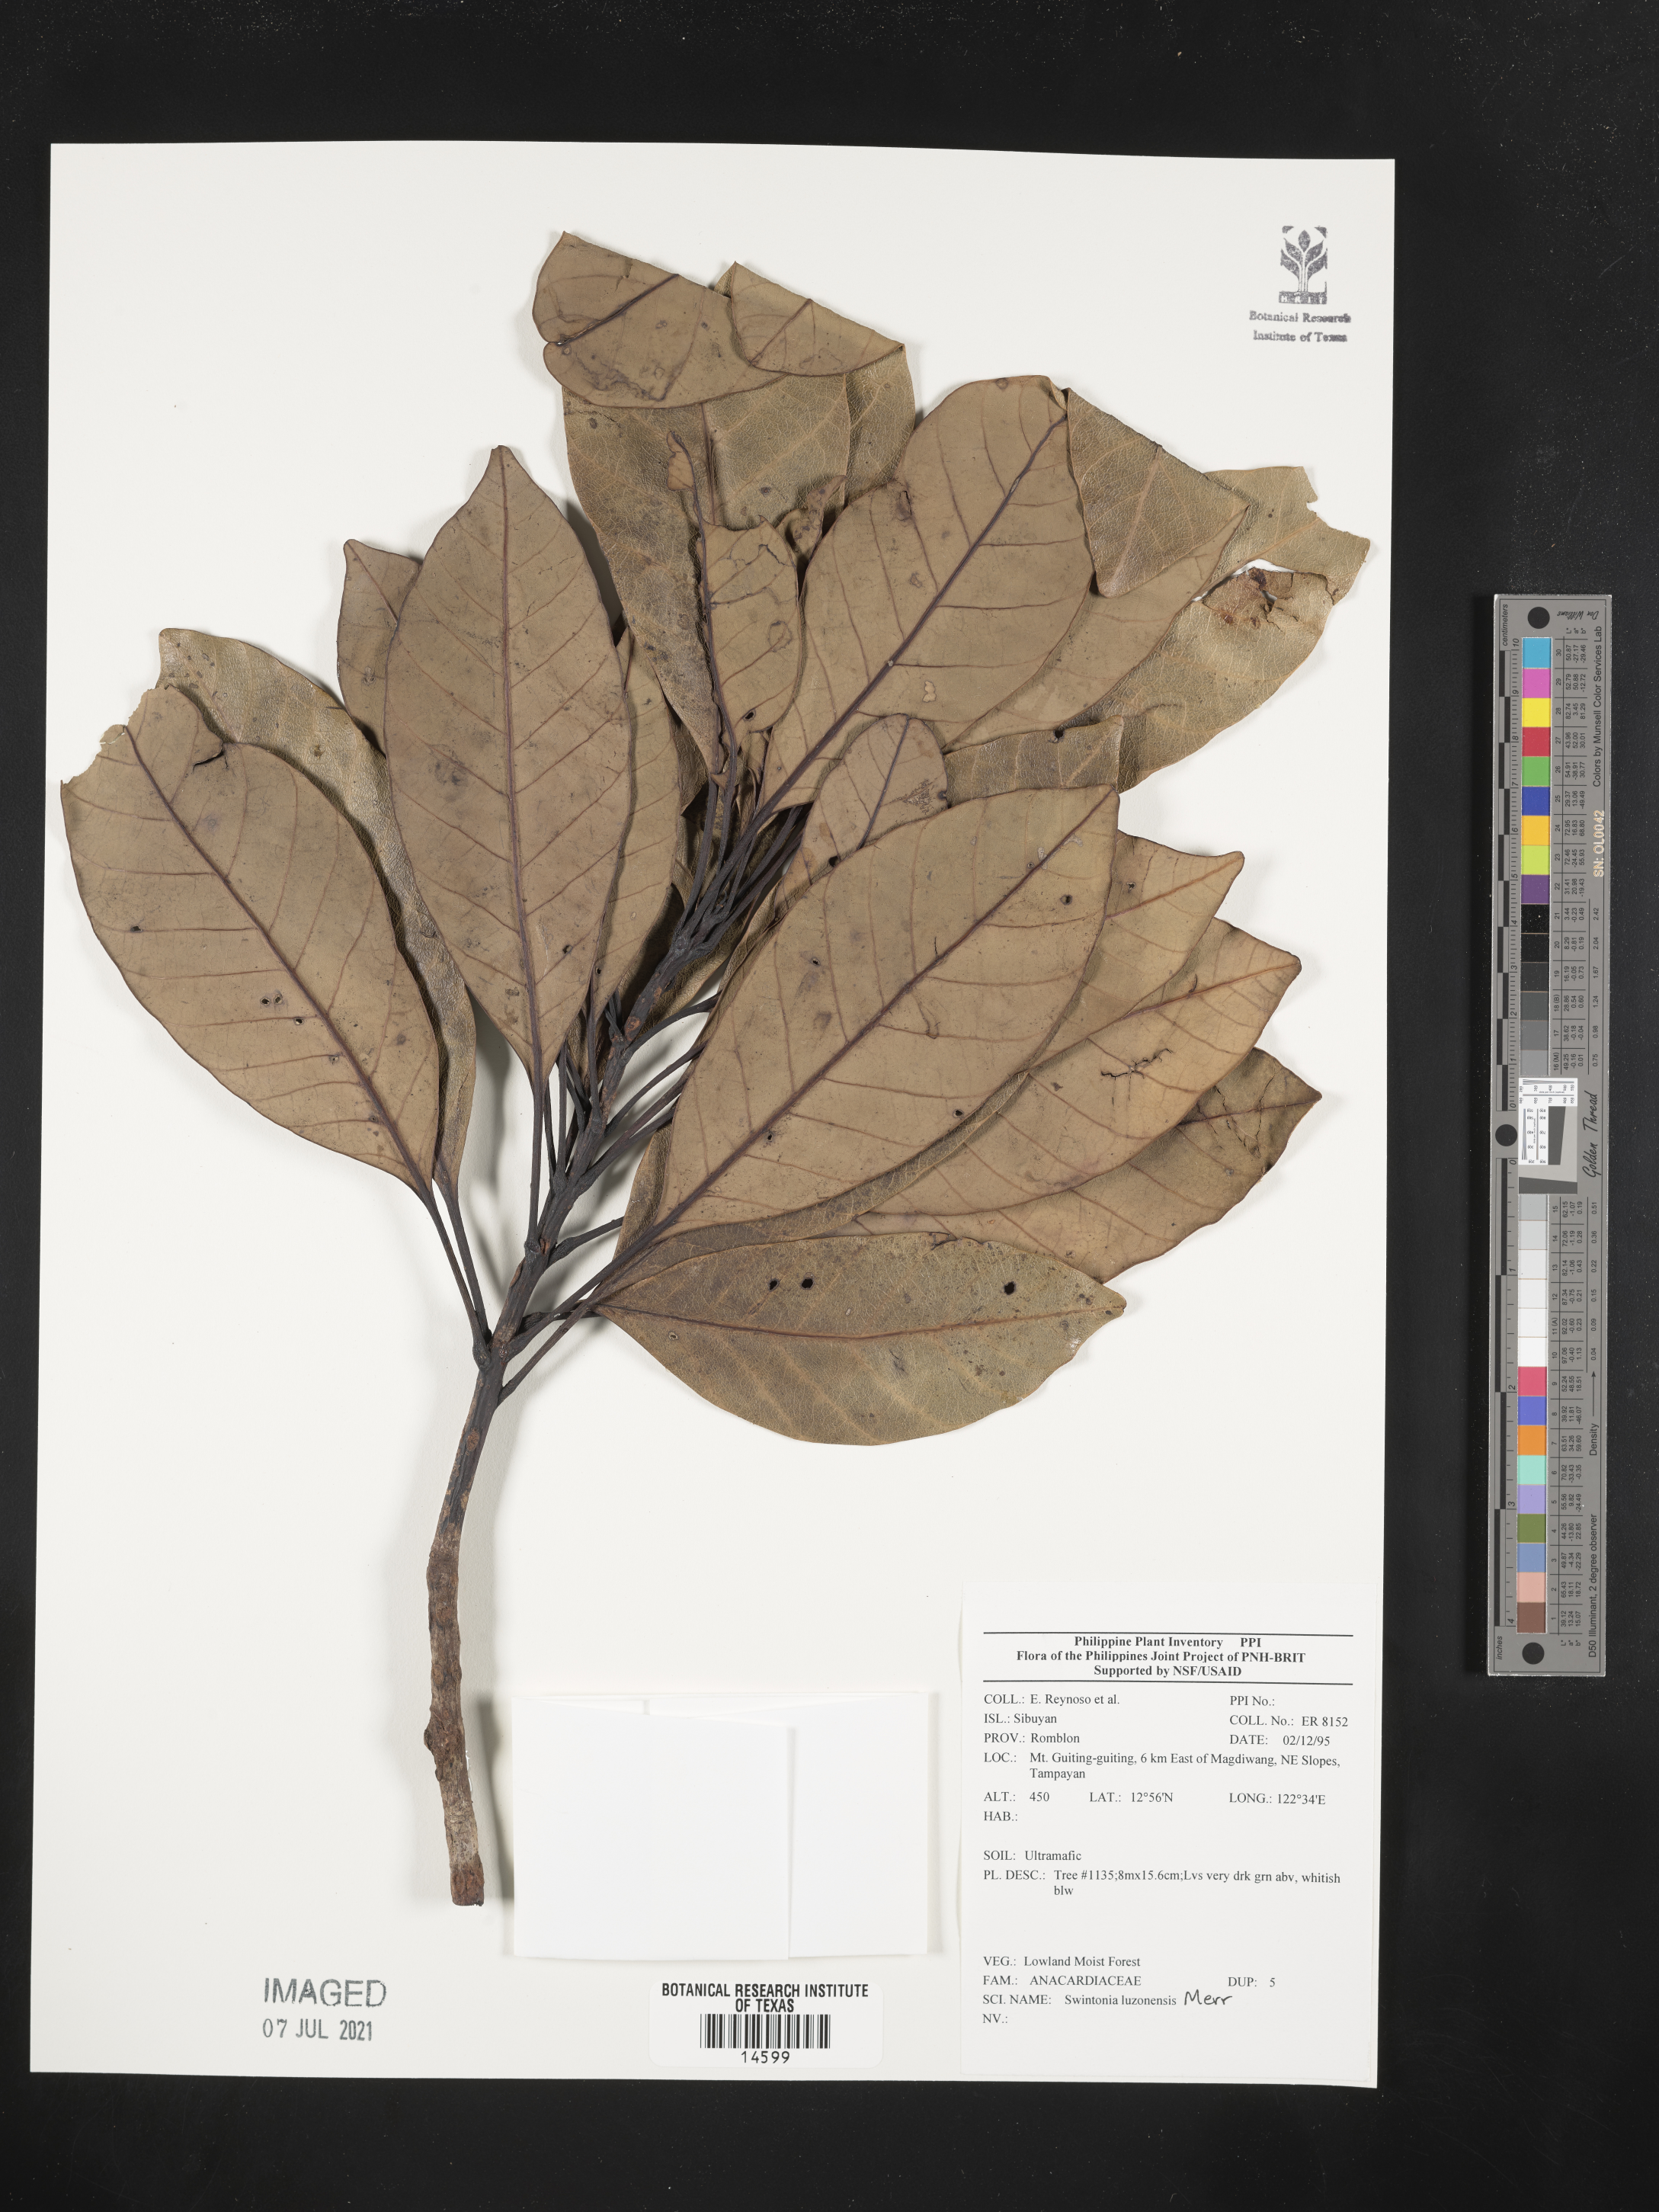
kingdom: Plantae
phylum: Tracheophyta
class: Magnoliopsida
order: Sapindales
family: Anacardiaceae
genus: Swintonia
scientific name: Swintonia acuta
